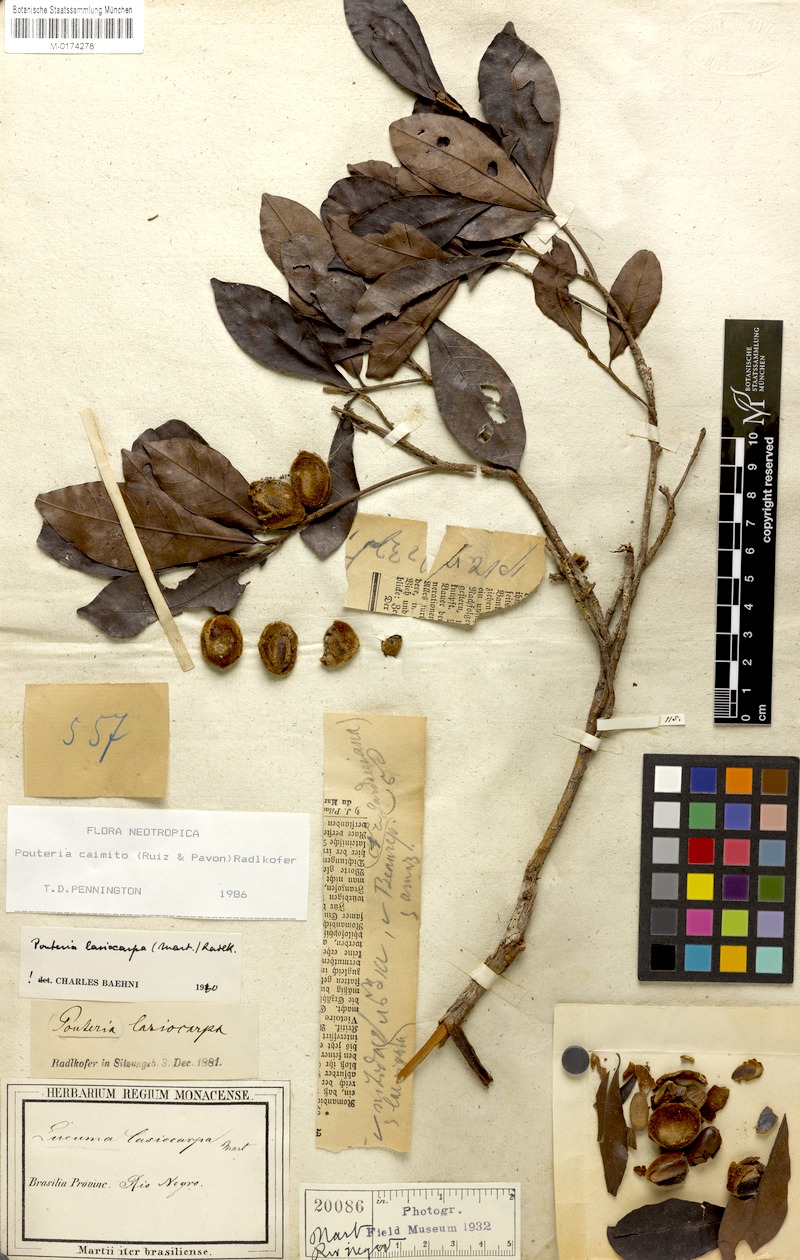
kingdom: Plantae
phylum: Tracheophyta
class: Magnoliopsida
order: Ericales
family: Sapotaceae
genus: Pouteria
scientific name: Pouteria caimito
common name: Caimito
